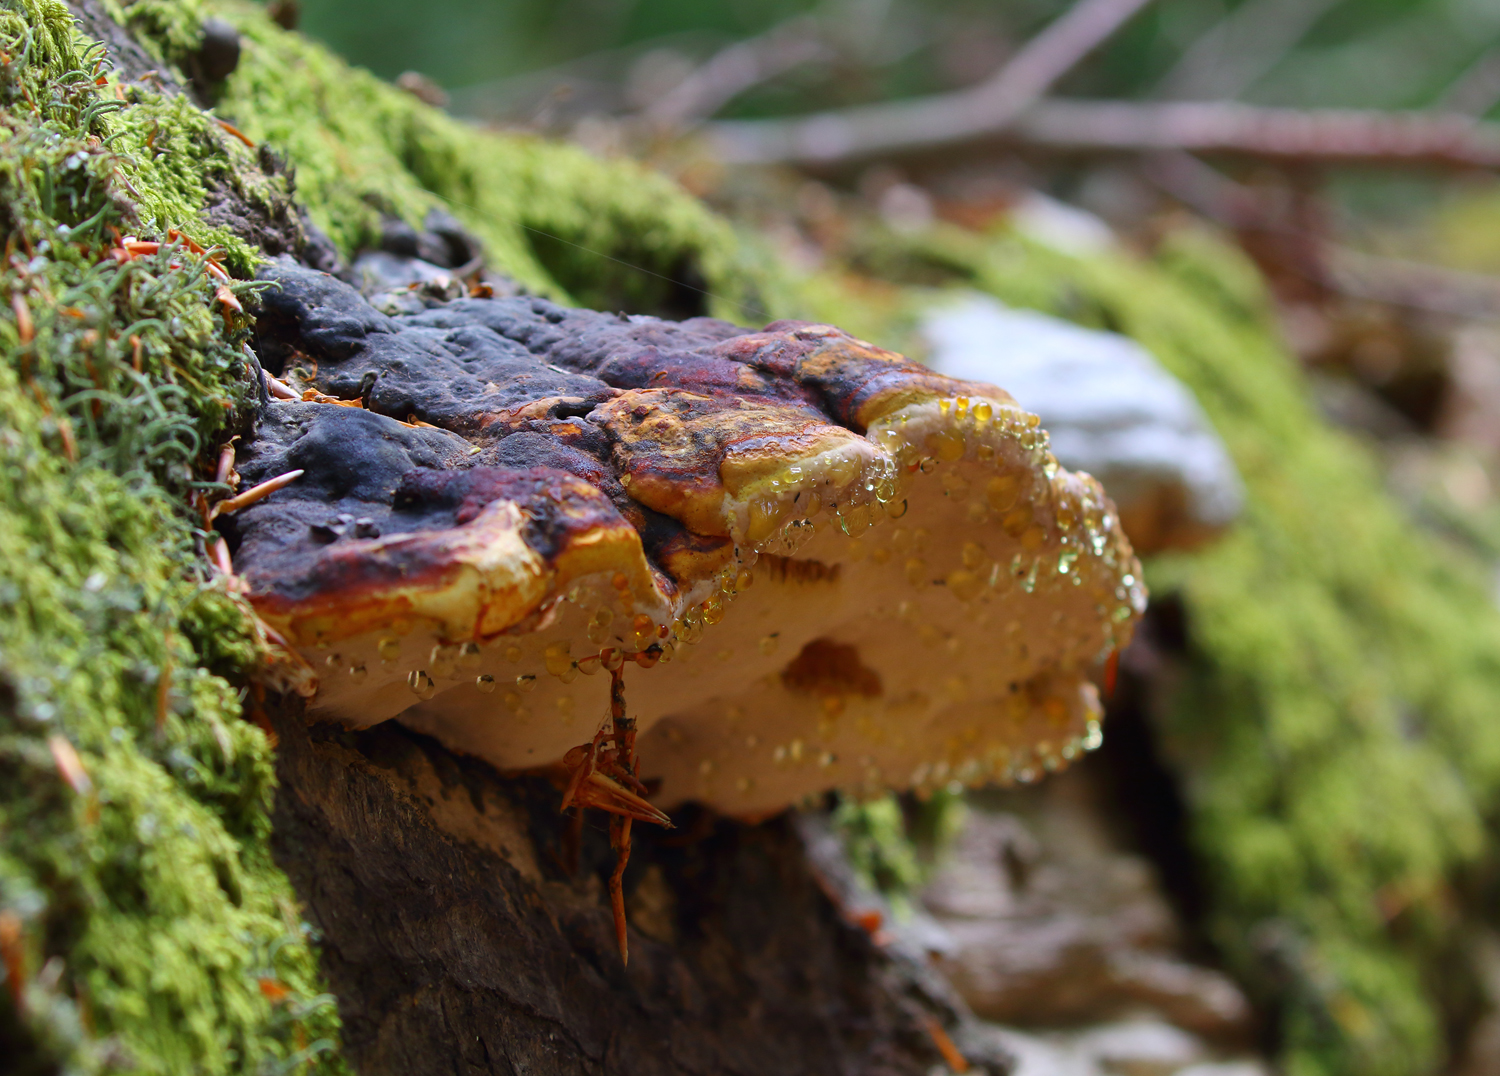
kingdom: Fungi
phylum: Basidiomycota
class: Agaricomycetes
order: Polyporales
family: Fomitopsidaceae
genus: Fomitopsis
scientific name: Fomitopsis pinicola
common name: randbæltet hovporesvamp
